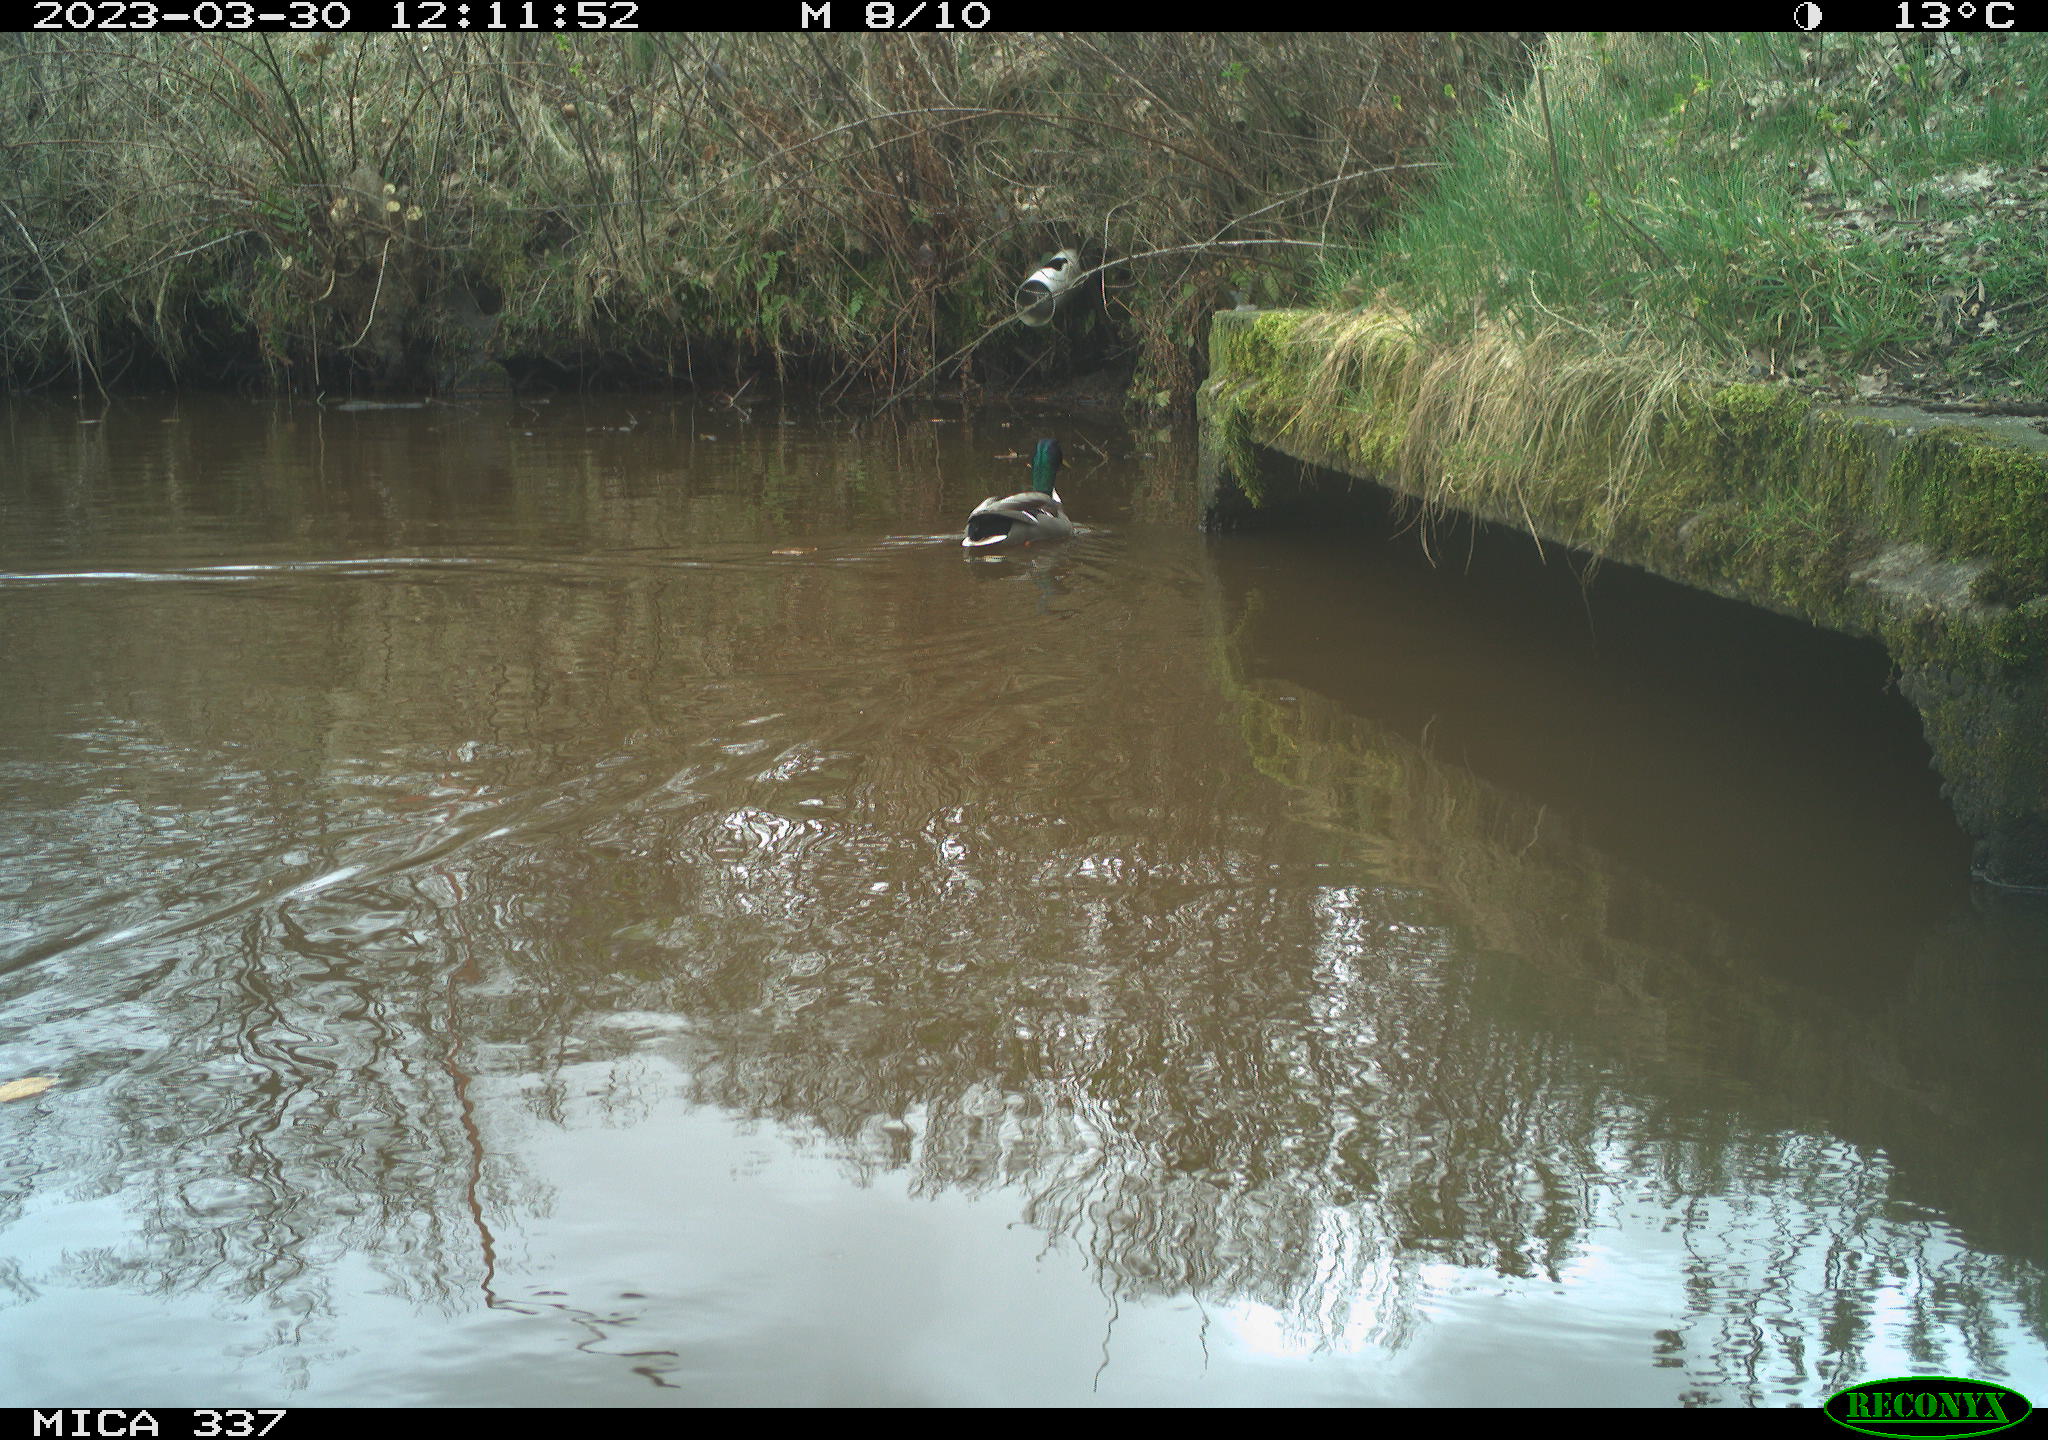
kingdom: Animalia
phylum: Chordata
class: Aves
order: Anseriformes
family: Anatidae
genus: Anas
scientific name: Anas
